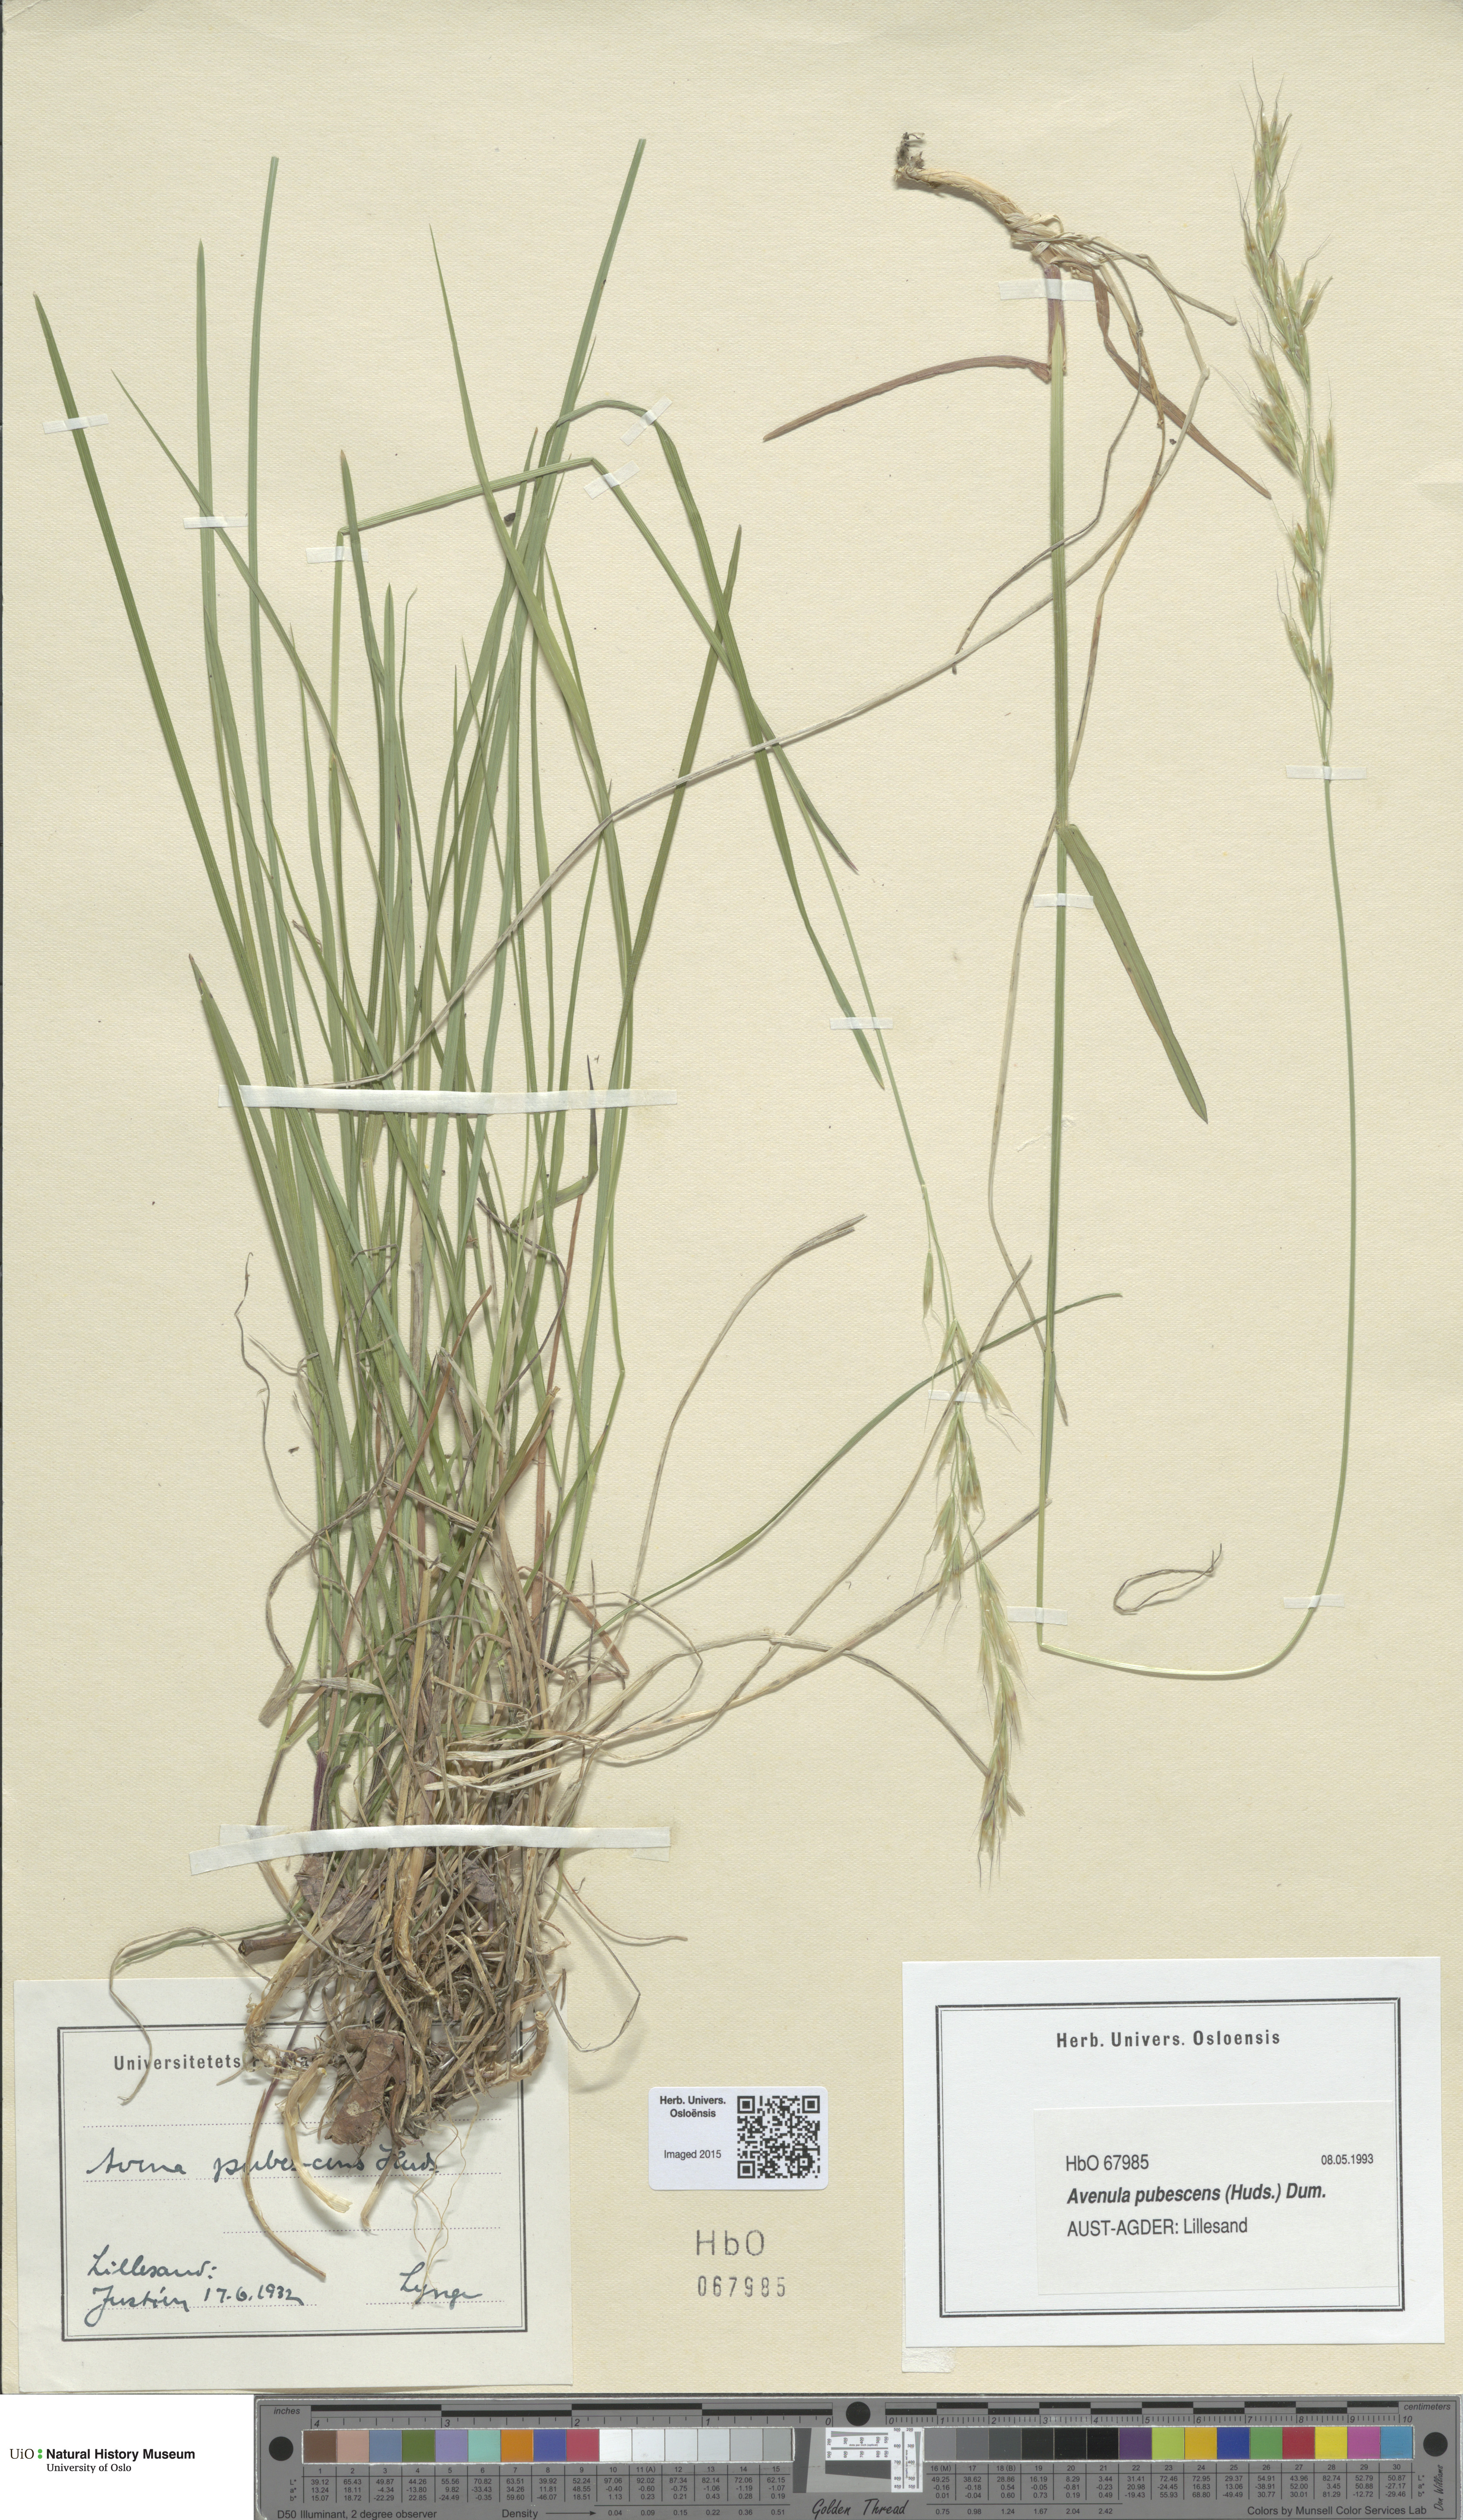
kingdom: Plantae
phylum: Tracheophyta
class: Liliopsida
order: Poales
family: Poaceae
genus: Avenula
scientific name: Avenula pubescens
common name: Downy alpine oatgrass
